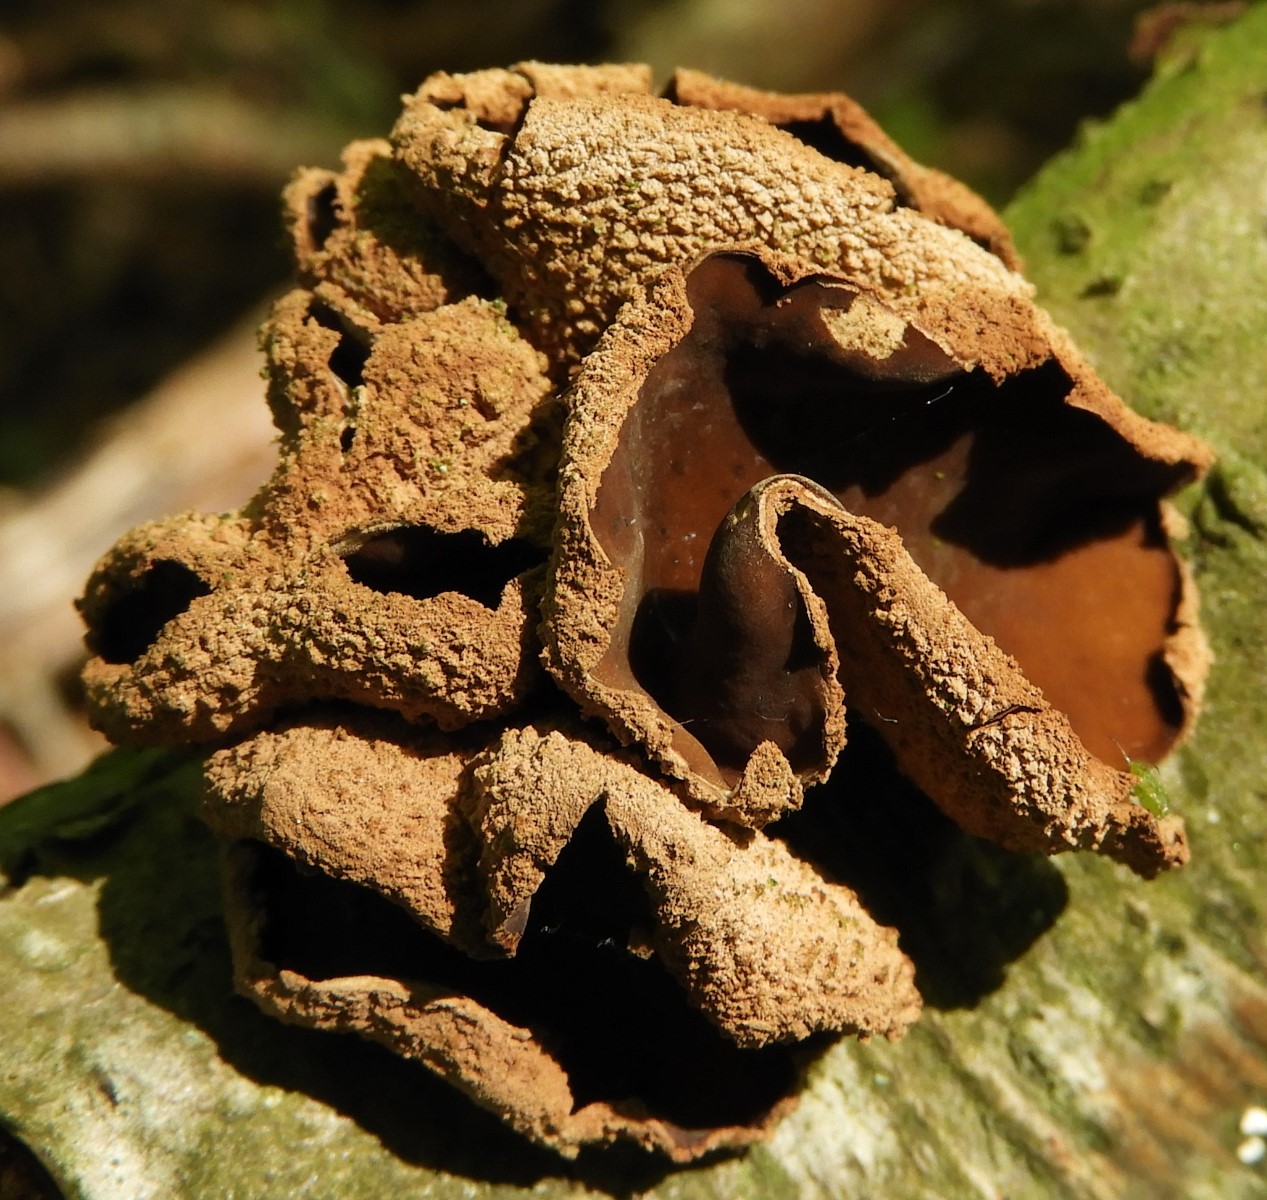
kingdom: Fungi
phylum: Ascomycota
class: Leotiomycetes
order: Helotiales
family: Cenangiaceae
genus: Encoelia
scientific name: Encoelia furfuracea
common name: hassel-læderskive
